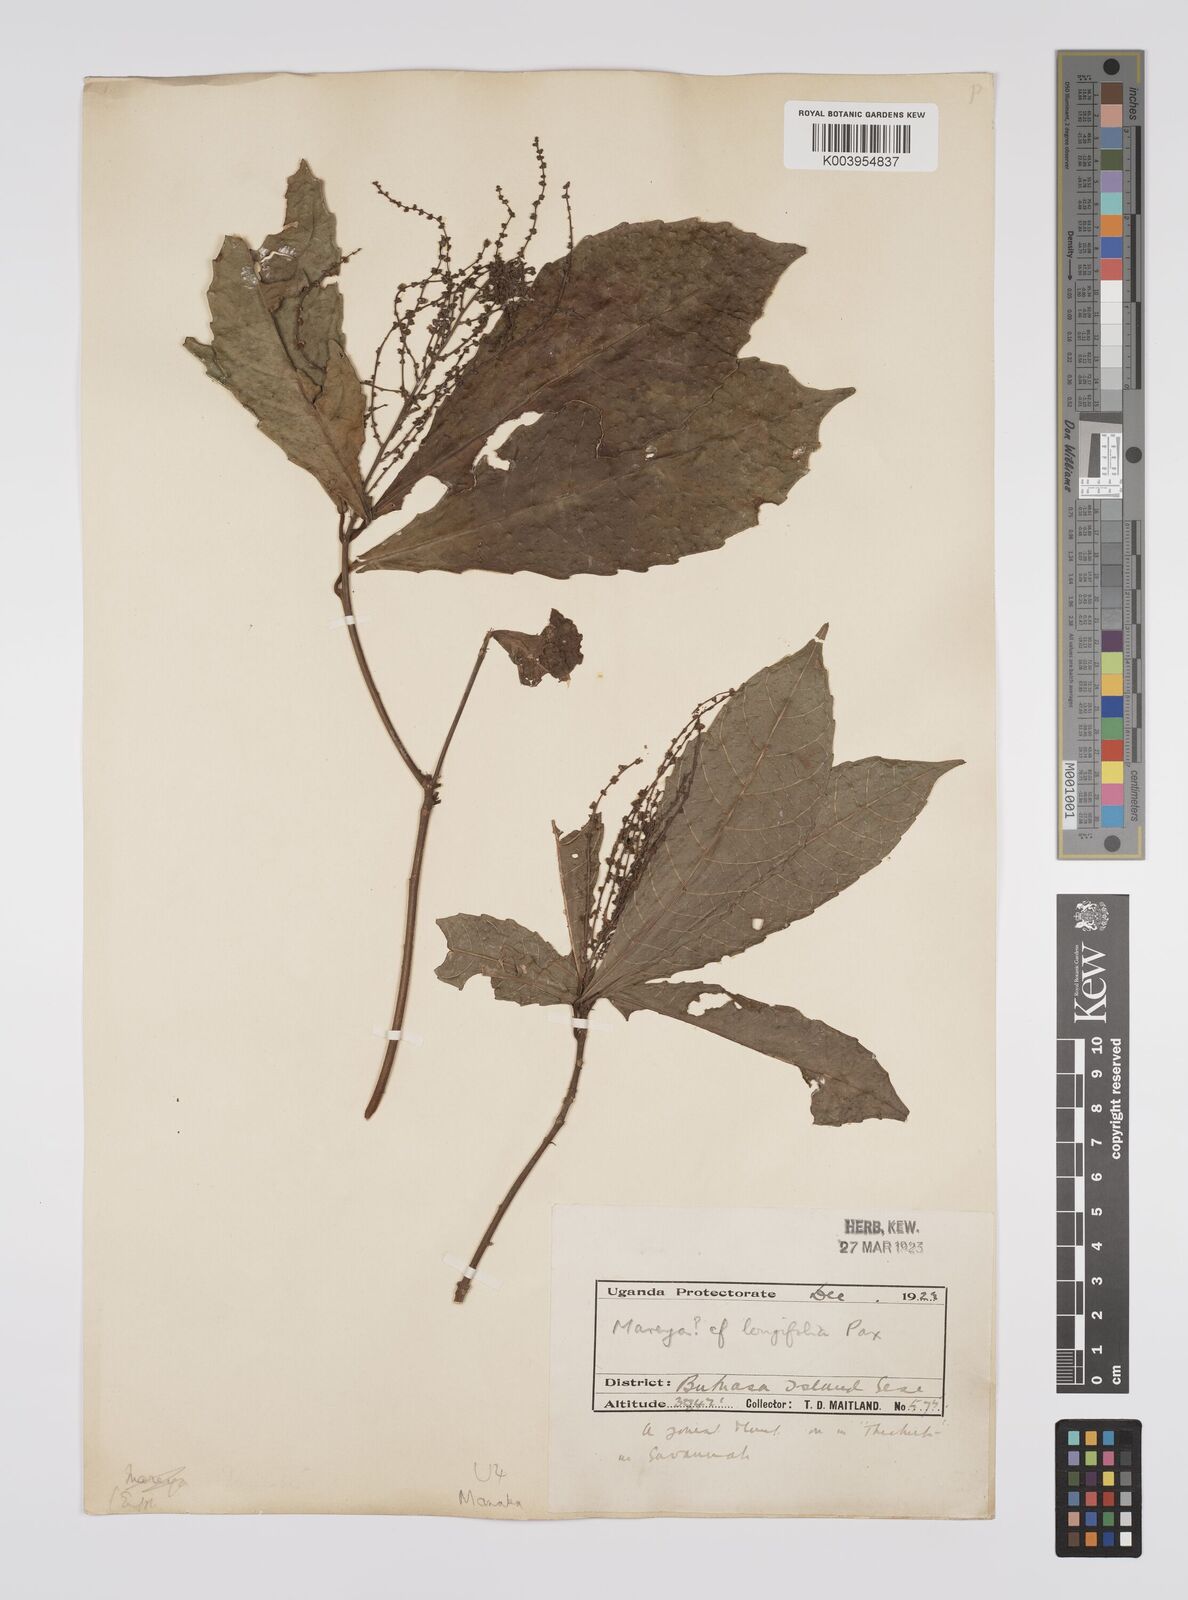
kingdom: Plantae
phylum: Tracheophyta
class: Magnoliopsida
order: Malpighiales
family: Euphorbiaceae
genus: Alchornea
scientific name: Alchornea hirtella
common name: Forest bead-string
